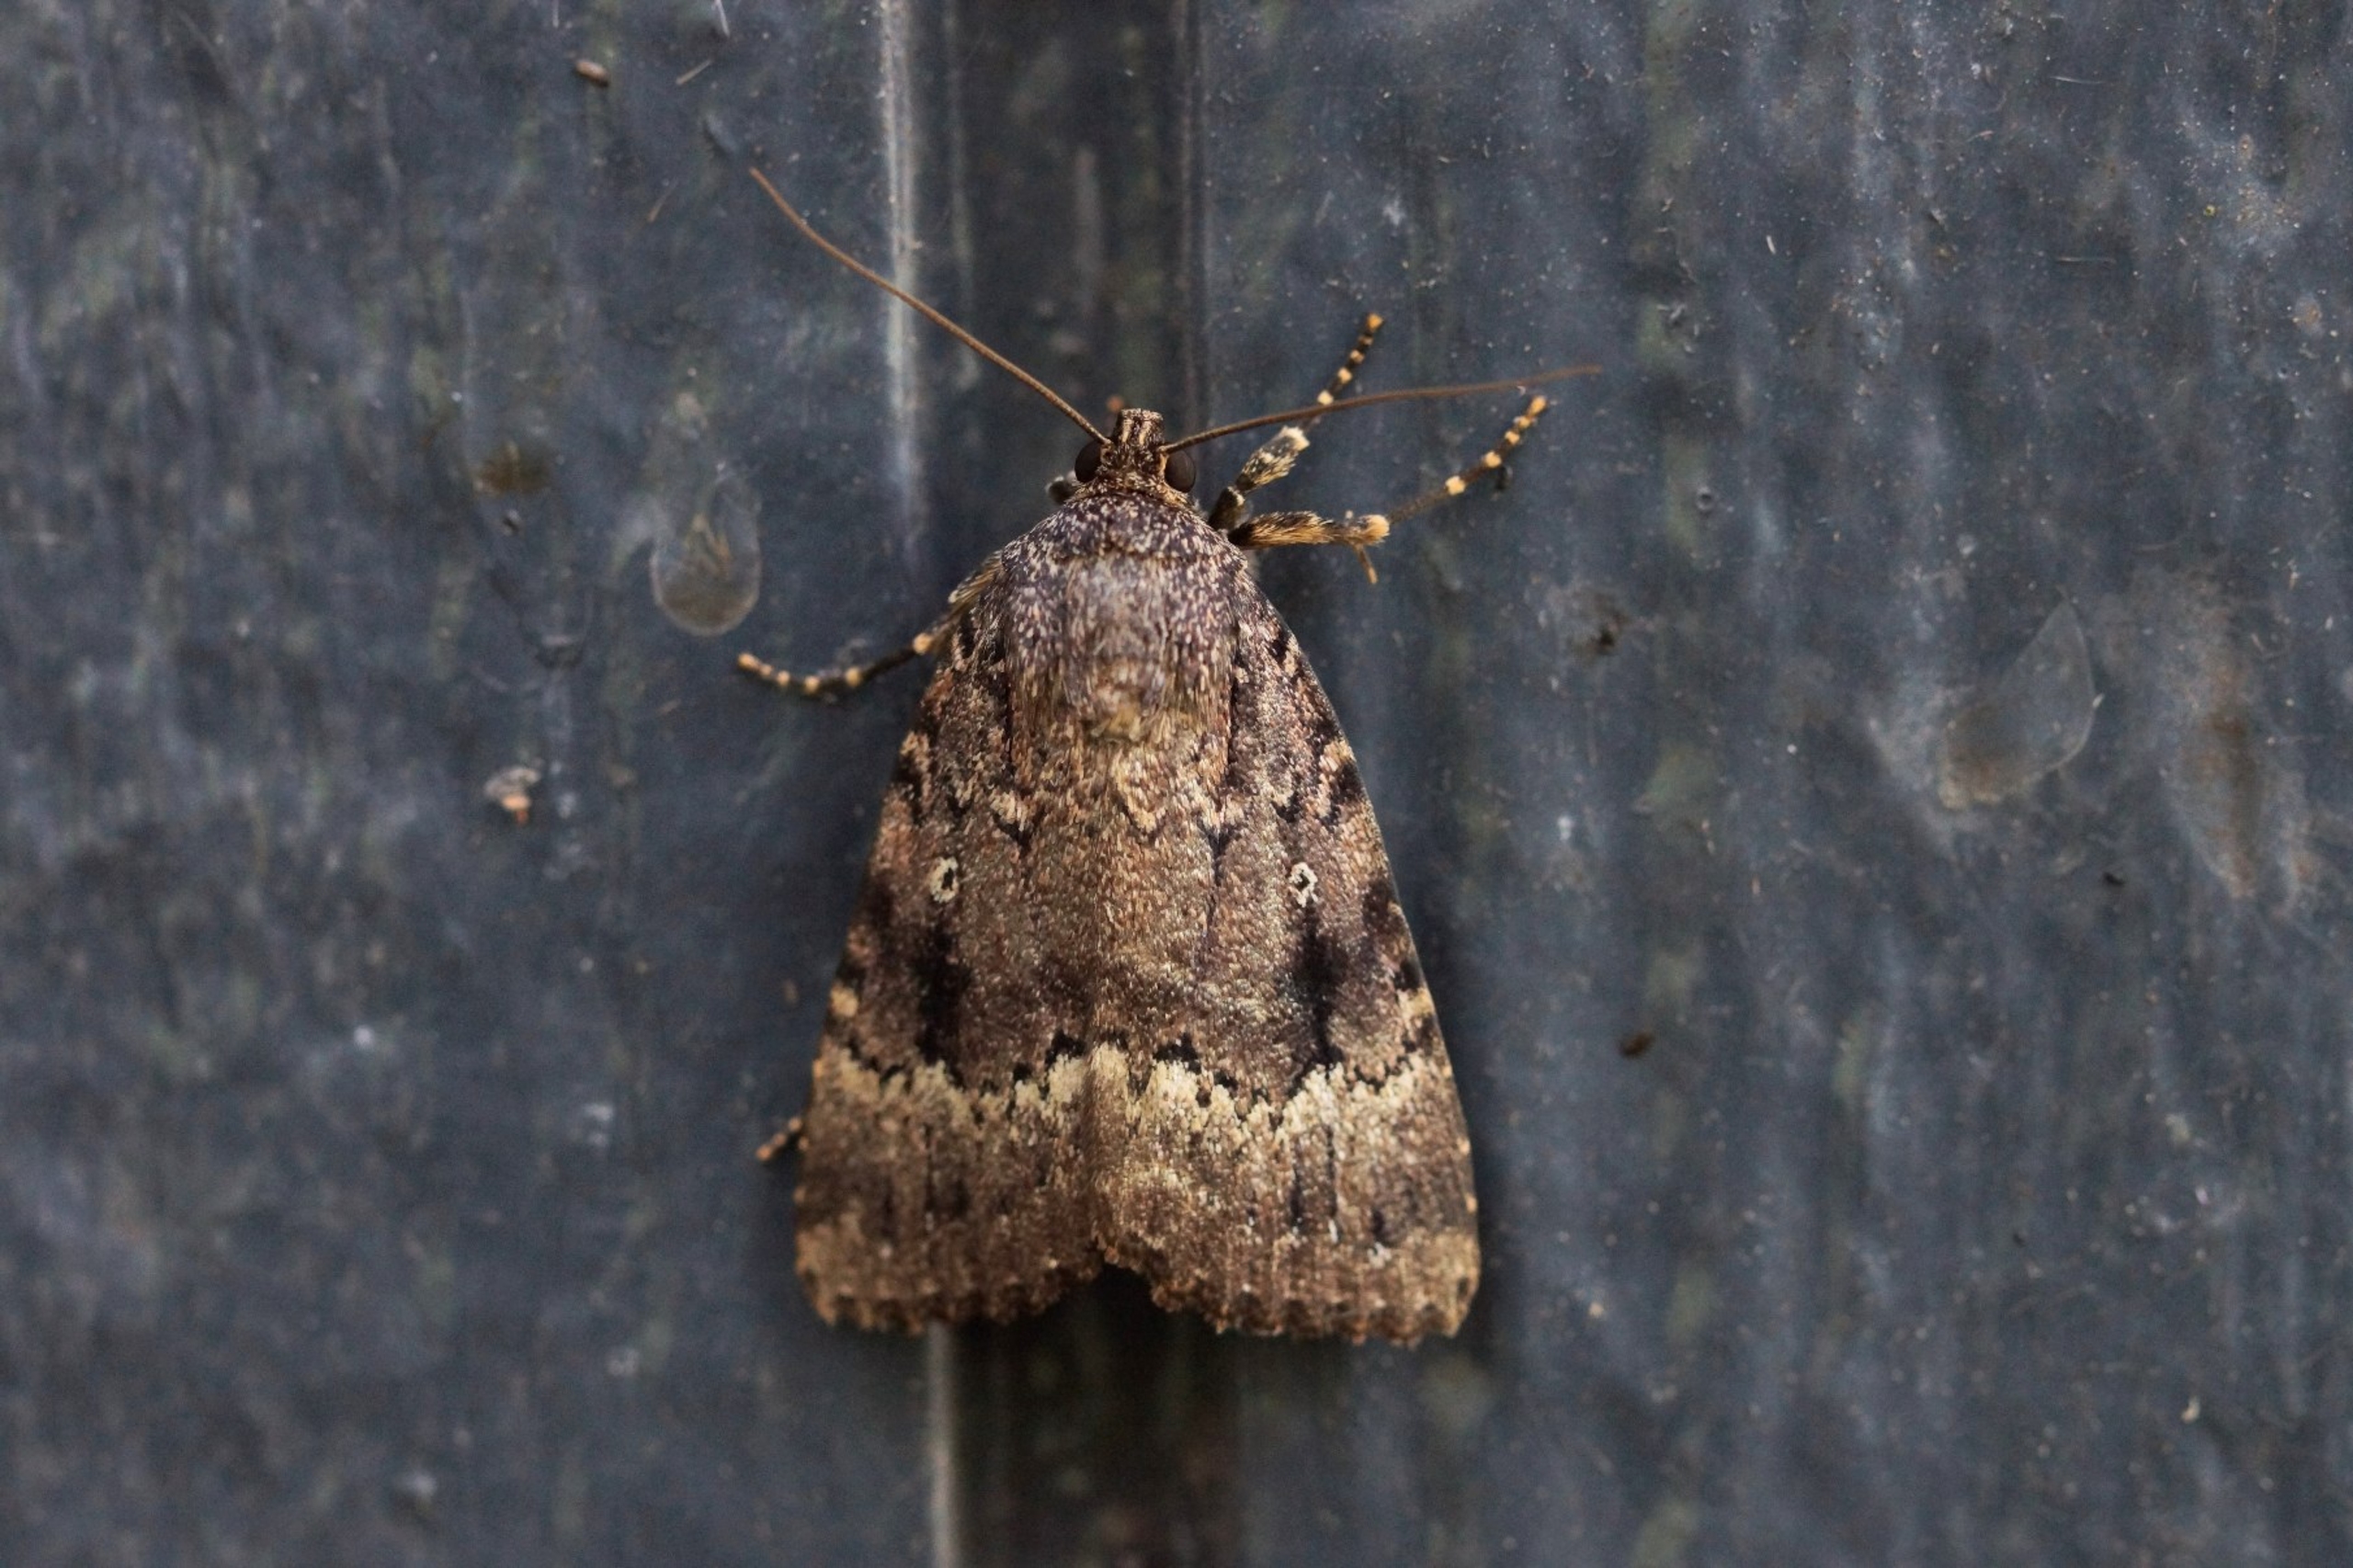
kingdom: Animalia
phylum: Arthropoda
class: Insecta
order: Lepidoptera
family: Noctuidae
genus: Amphipyra
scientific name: Amphipyra pyramidea
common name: Pyramideugle
